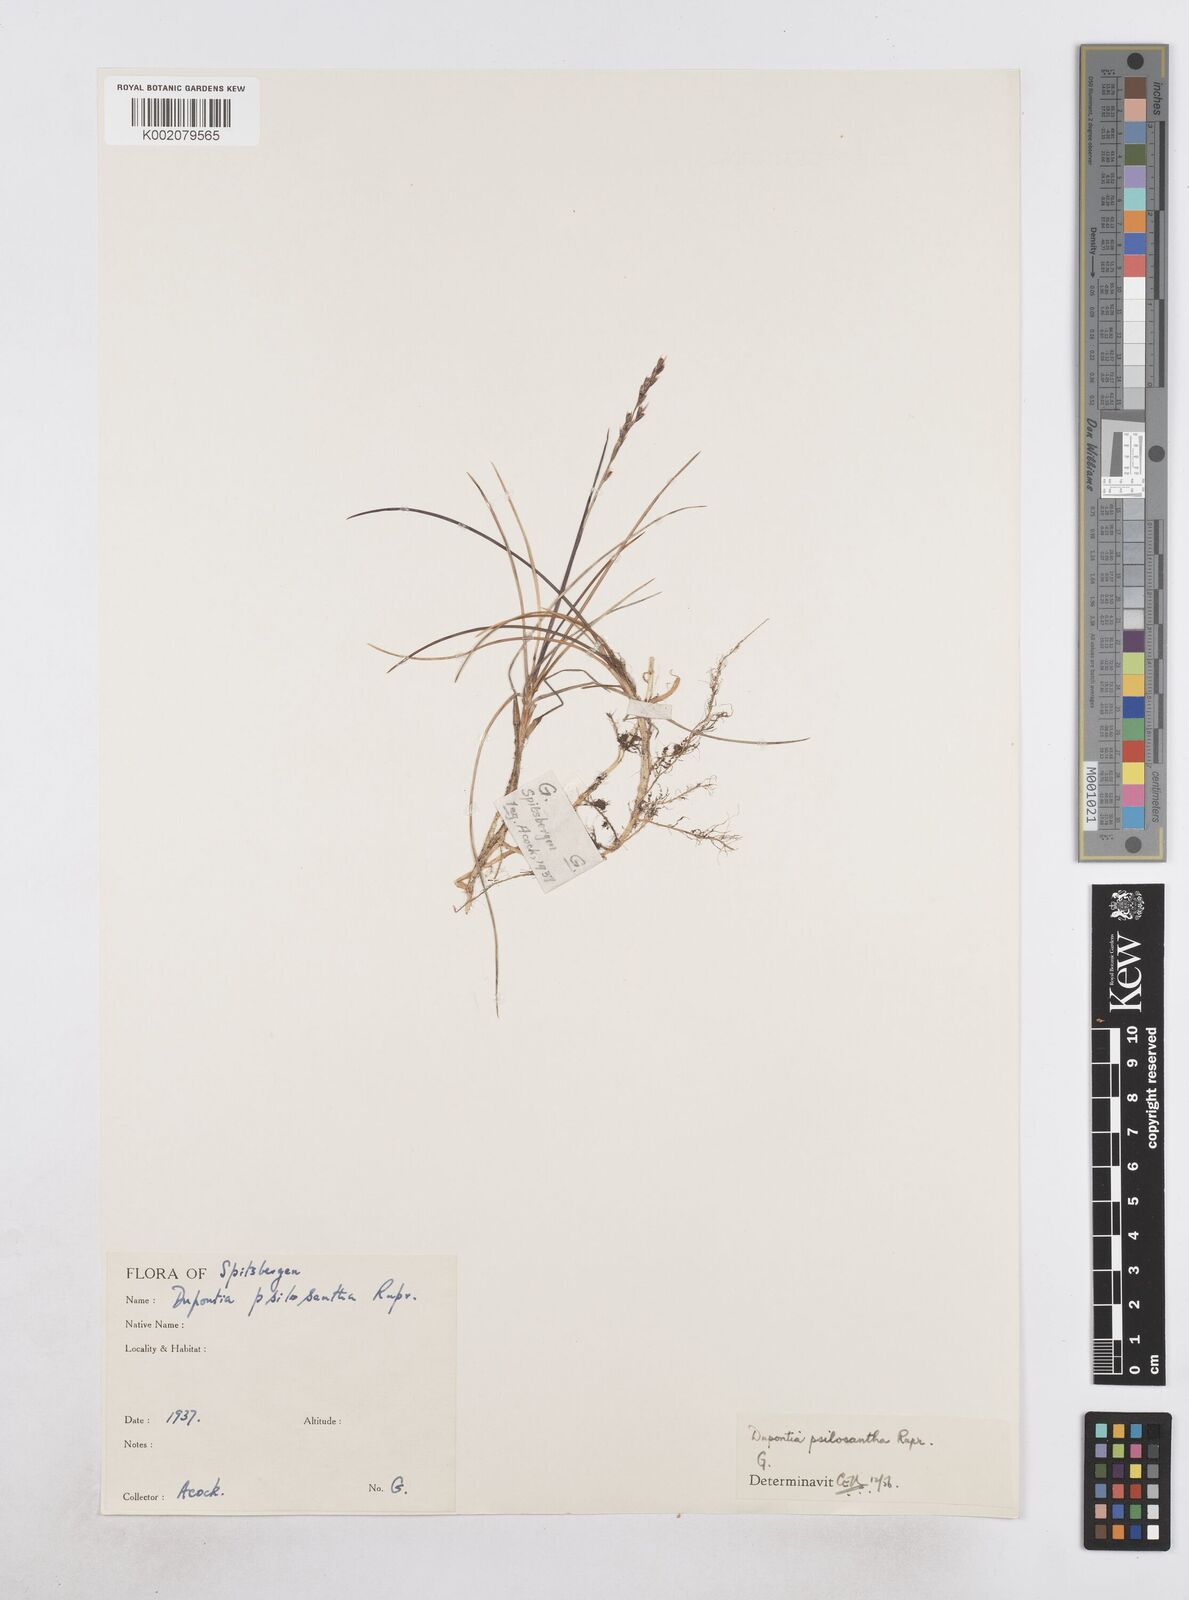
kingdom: Plantae
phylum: Tracheophyta
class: Liliopsida
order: Poales
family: Poaceae
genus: Dupontia
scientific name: Dupontia fisheri
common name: Tundra grass
